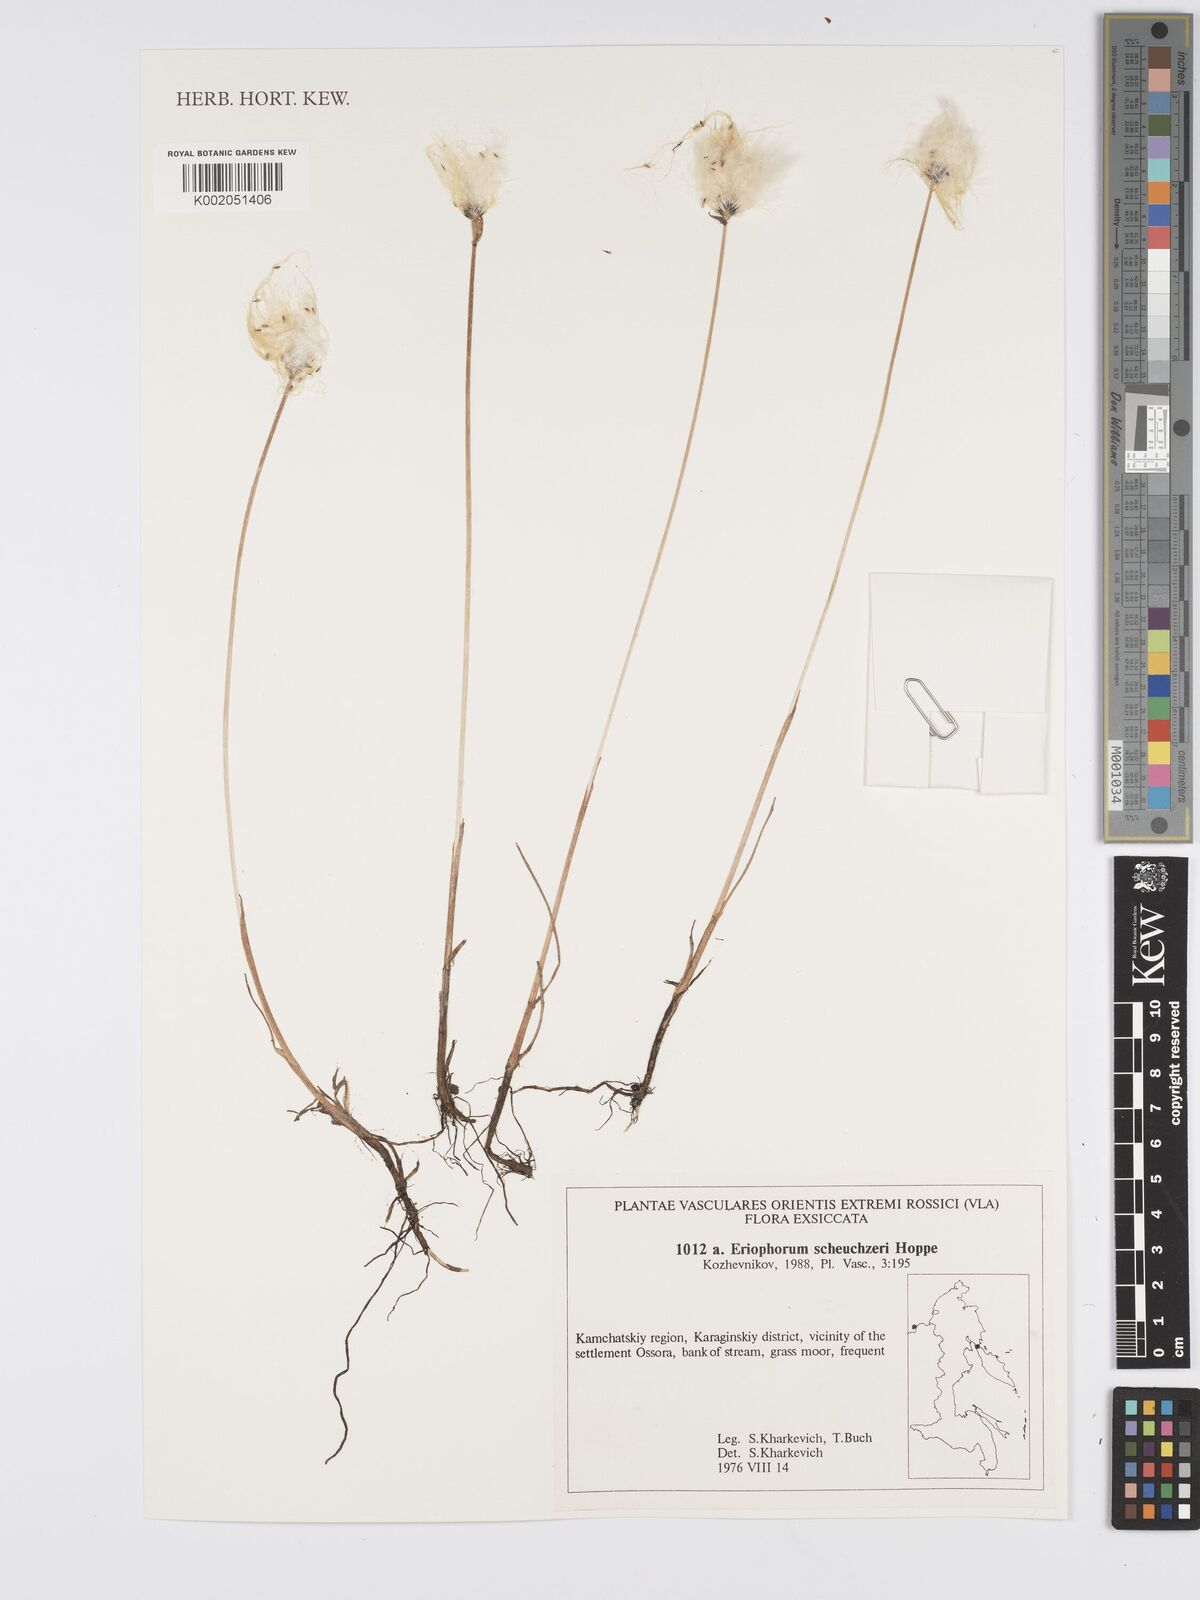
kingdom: Plantae
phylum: Tracheophyta
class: Liliopsida
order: Poales
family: Cyperaceae
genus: Eriophorum
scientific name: Eriophorum scheuchzeri
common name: Scheuchzer's cottongrass
